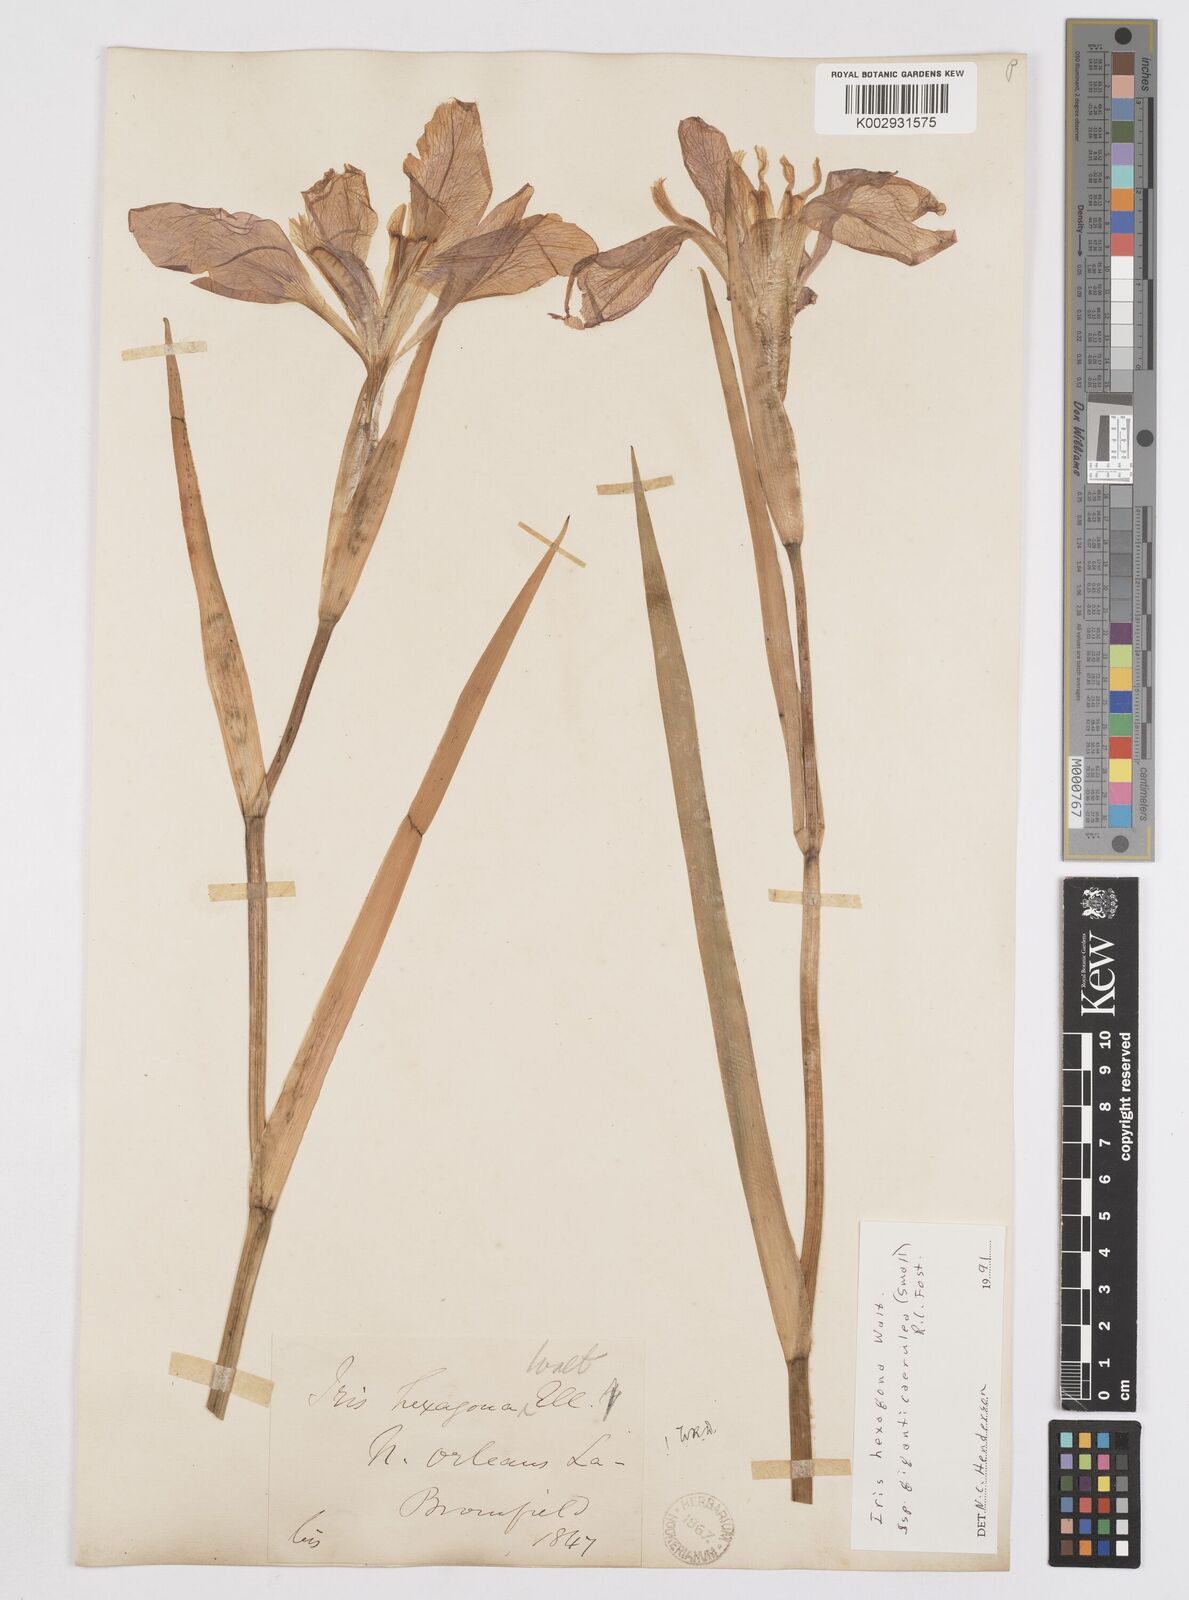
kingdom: Plantae
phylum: Tracheophyta
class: Liliopsida
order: Asparagales
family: Iridaceae
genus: Iris
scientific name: Iris hexagona
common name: Carolina iris
